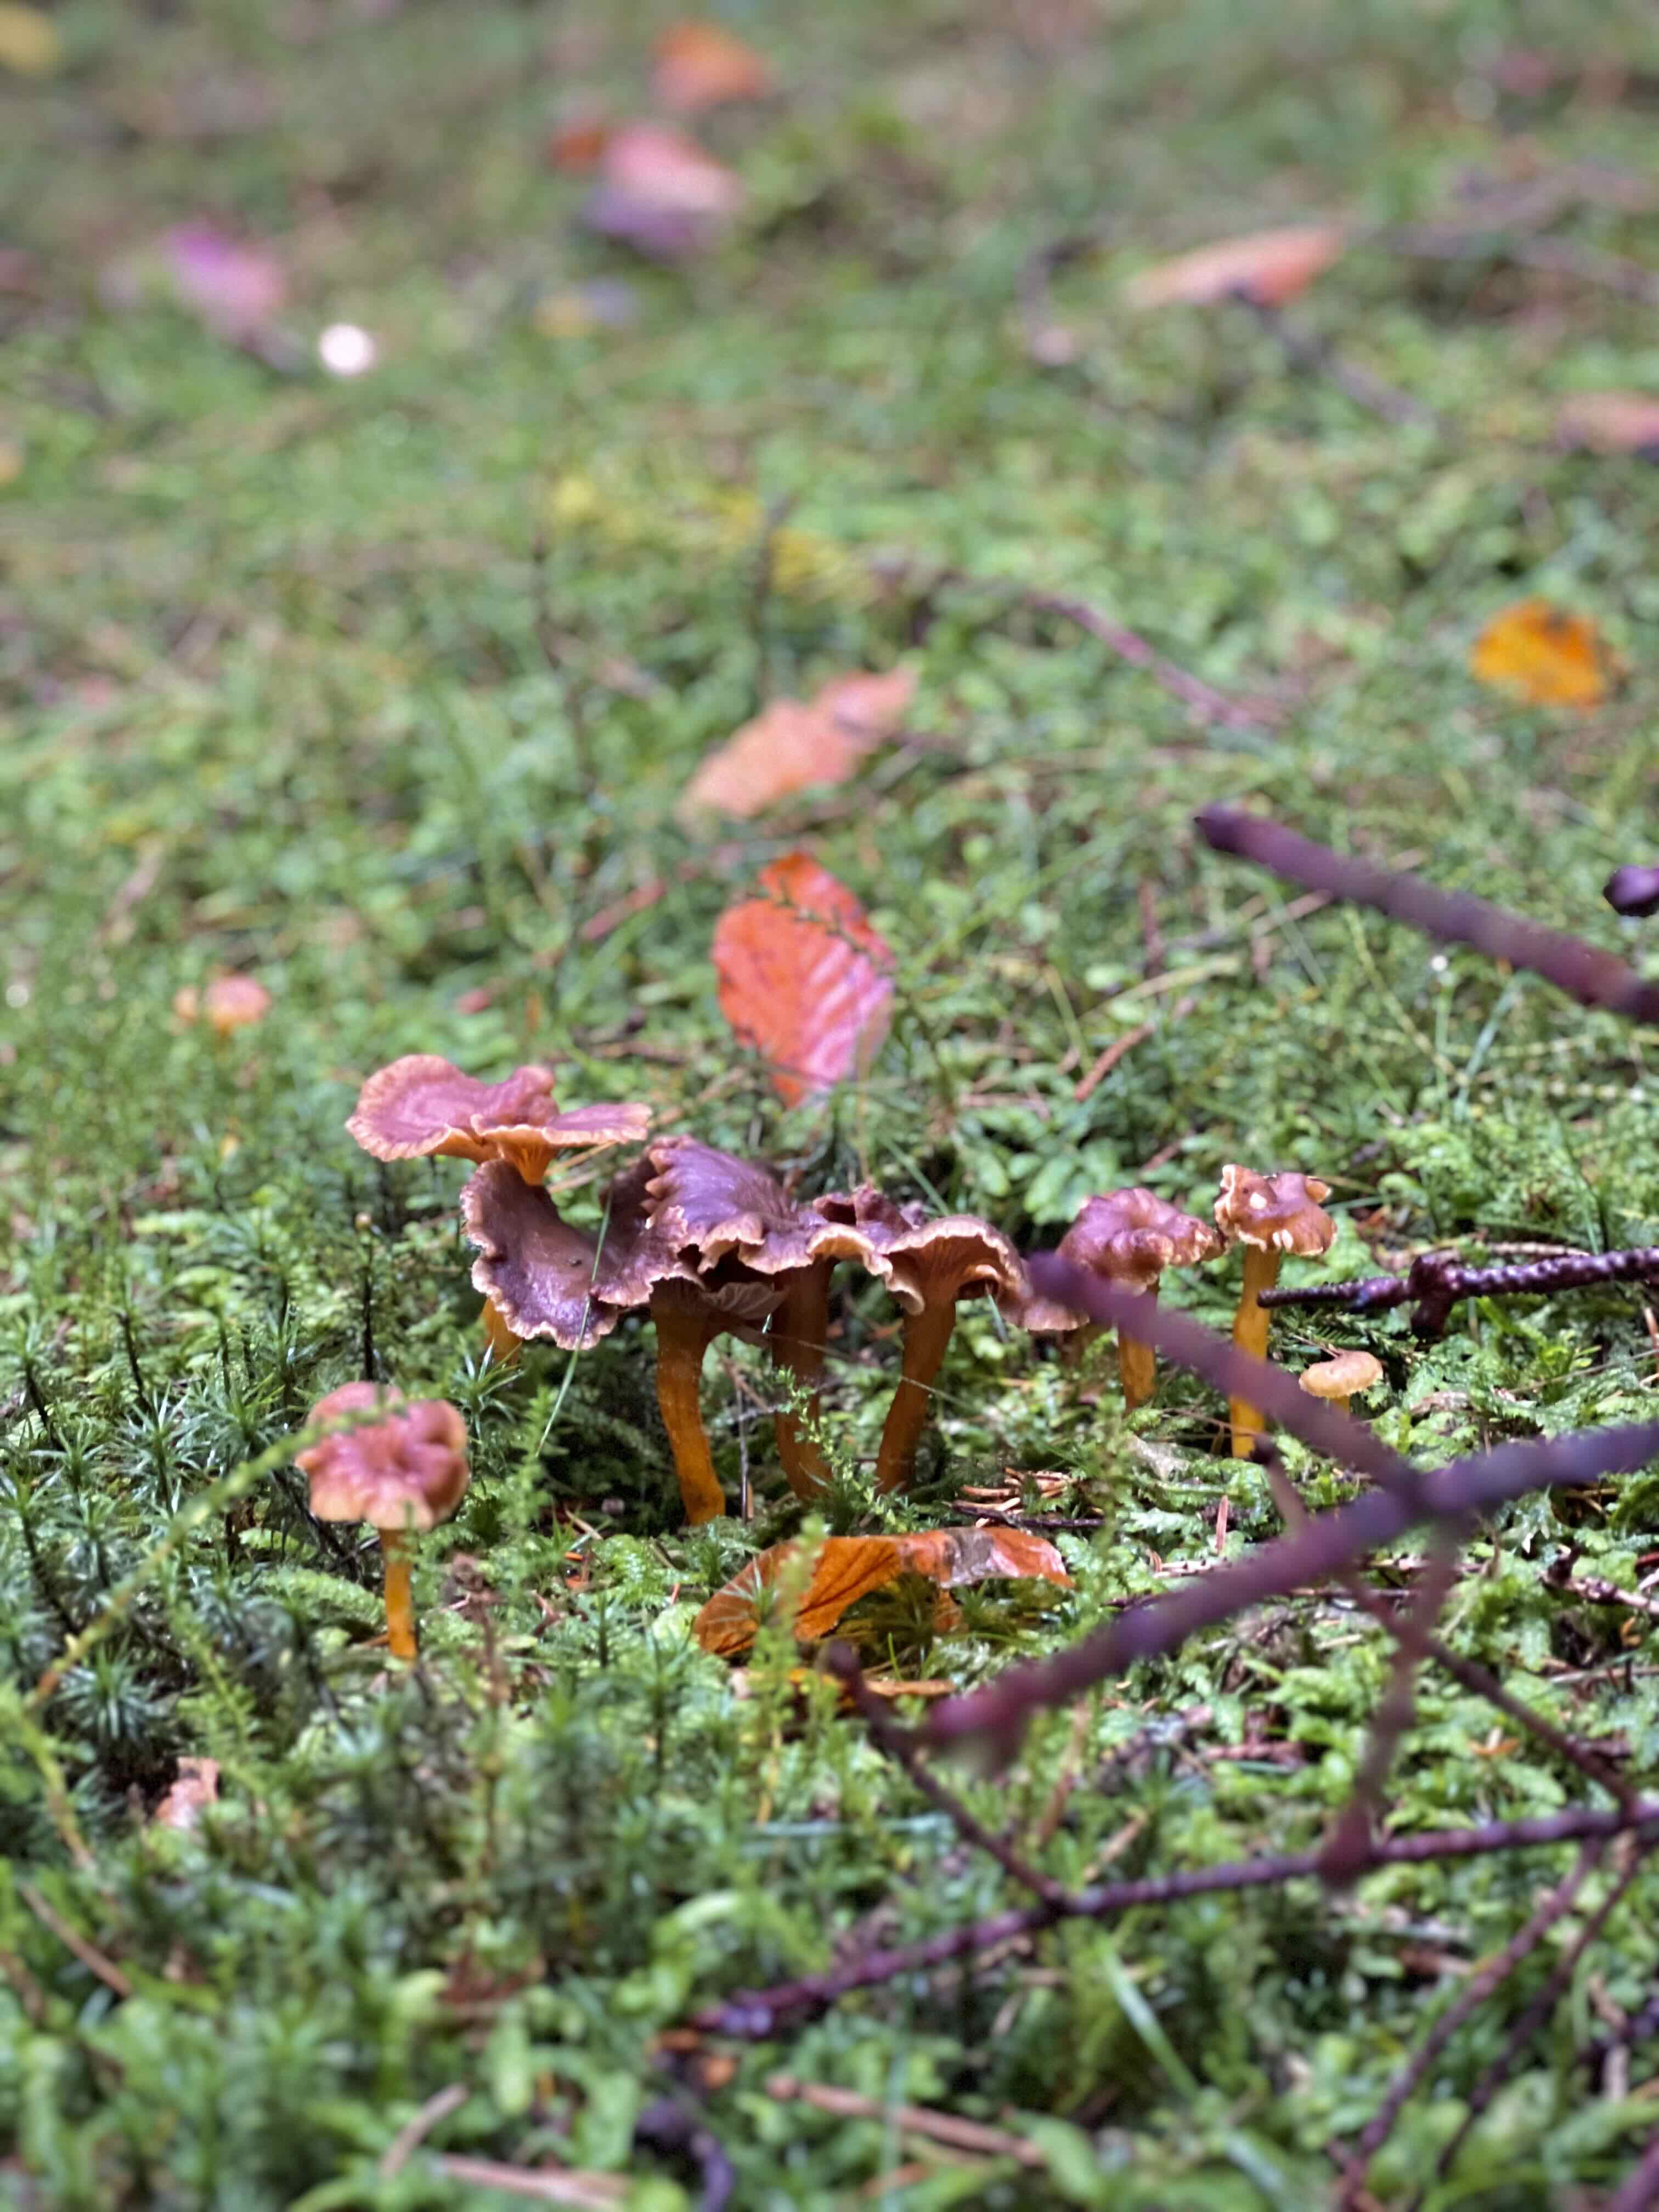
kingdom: Fungi
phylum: Basidiomycota
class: Agaricomycetes
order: Cantharellales
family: Hydnaceae
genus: Craterellus
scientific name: Craterellus tubaeformis
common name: tragt-kantarel
